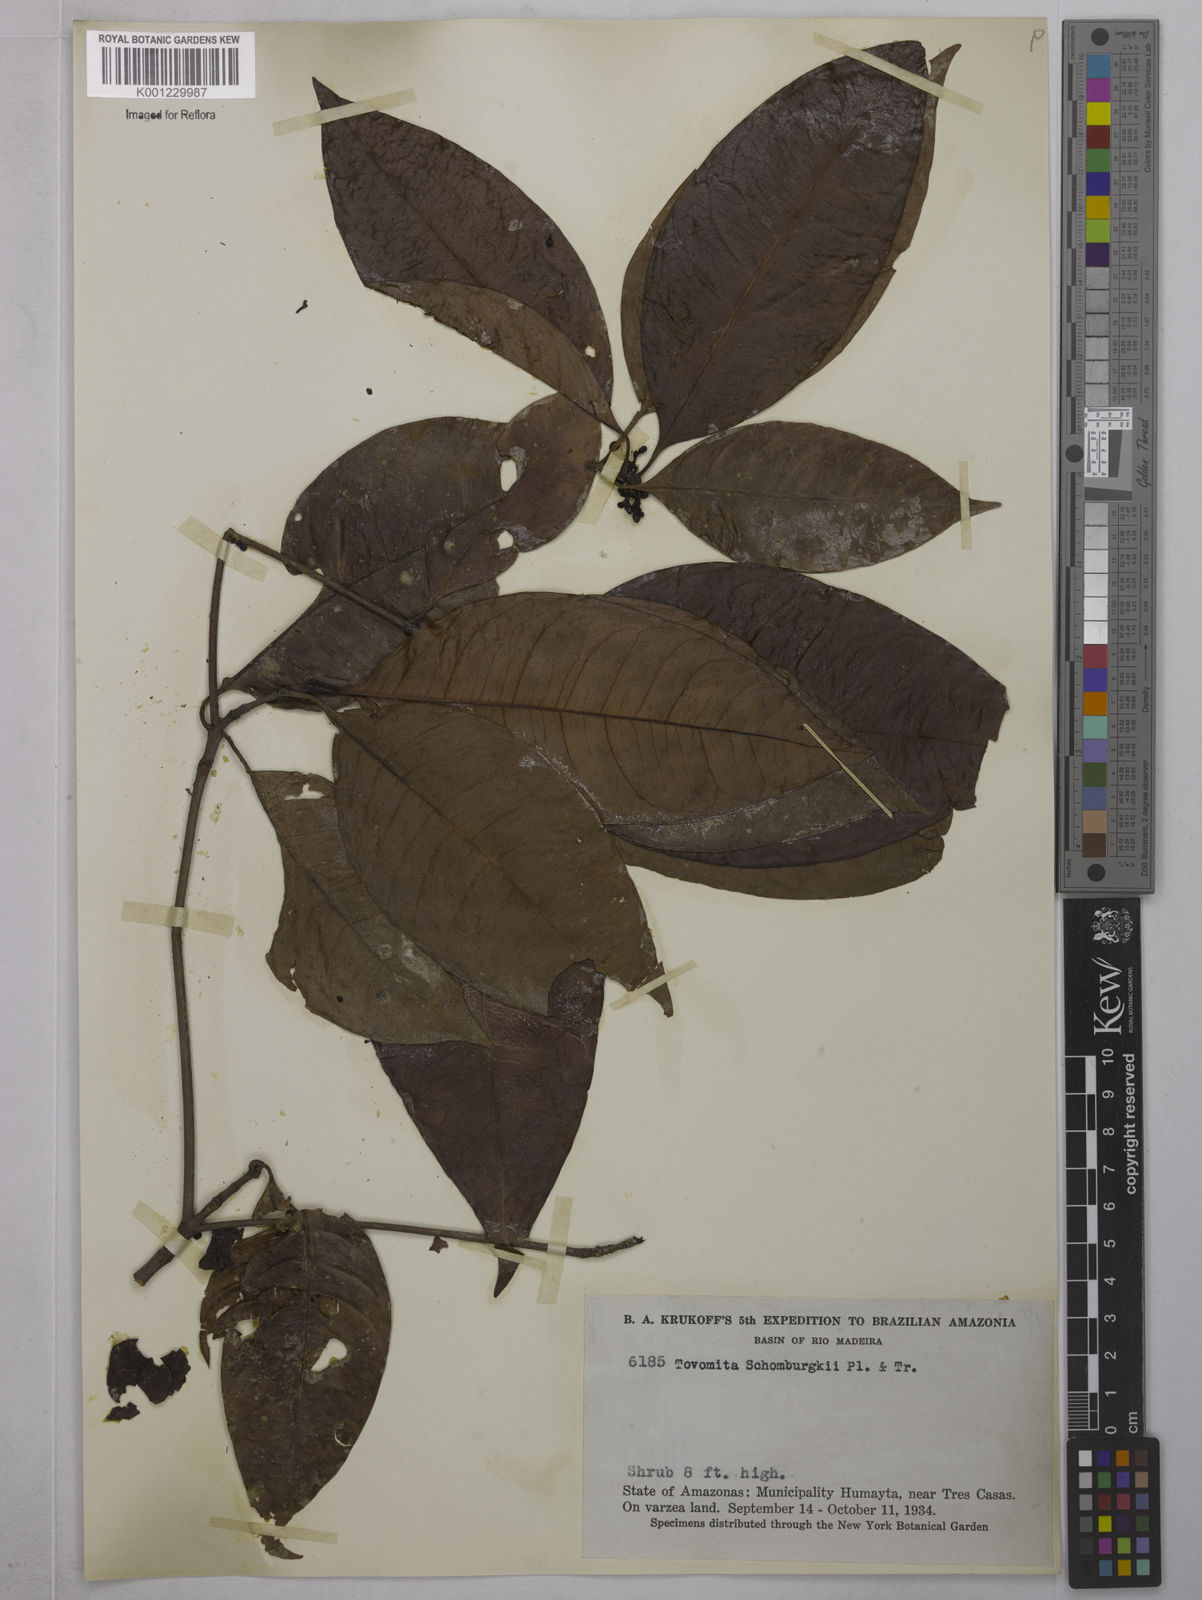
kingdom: Plantae
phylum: Tracheophyta
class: Magnoliopsida
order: Malpighiales
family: Clusiaceae
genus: Tovomita
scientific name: Tovomita schomburgkii
